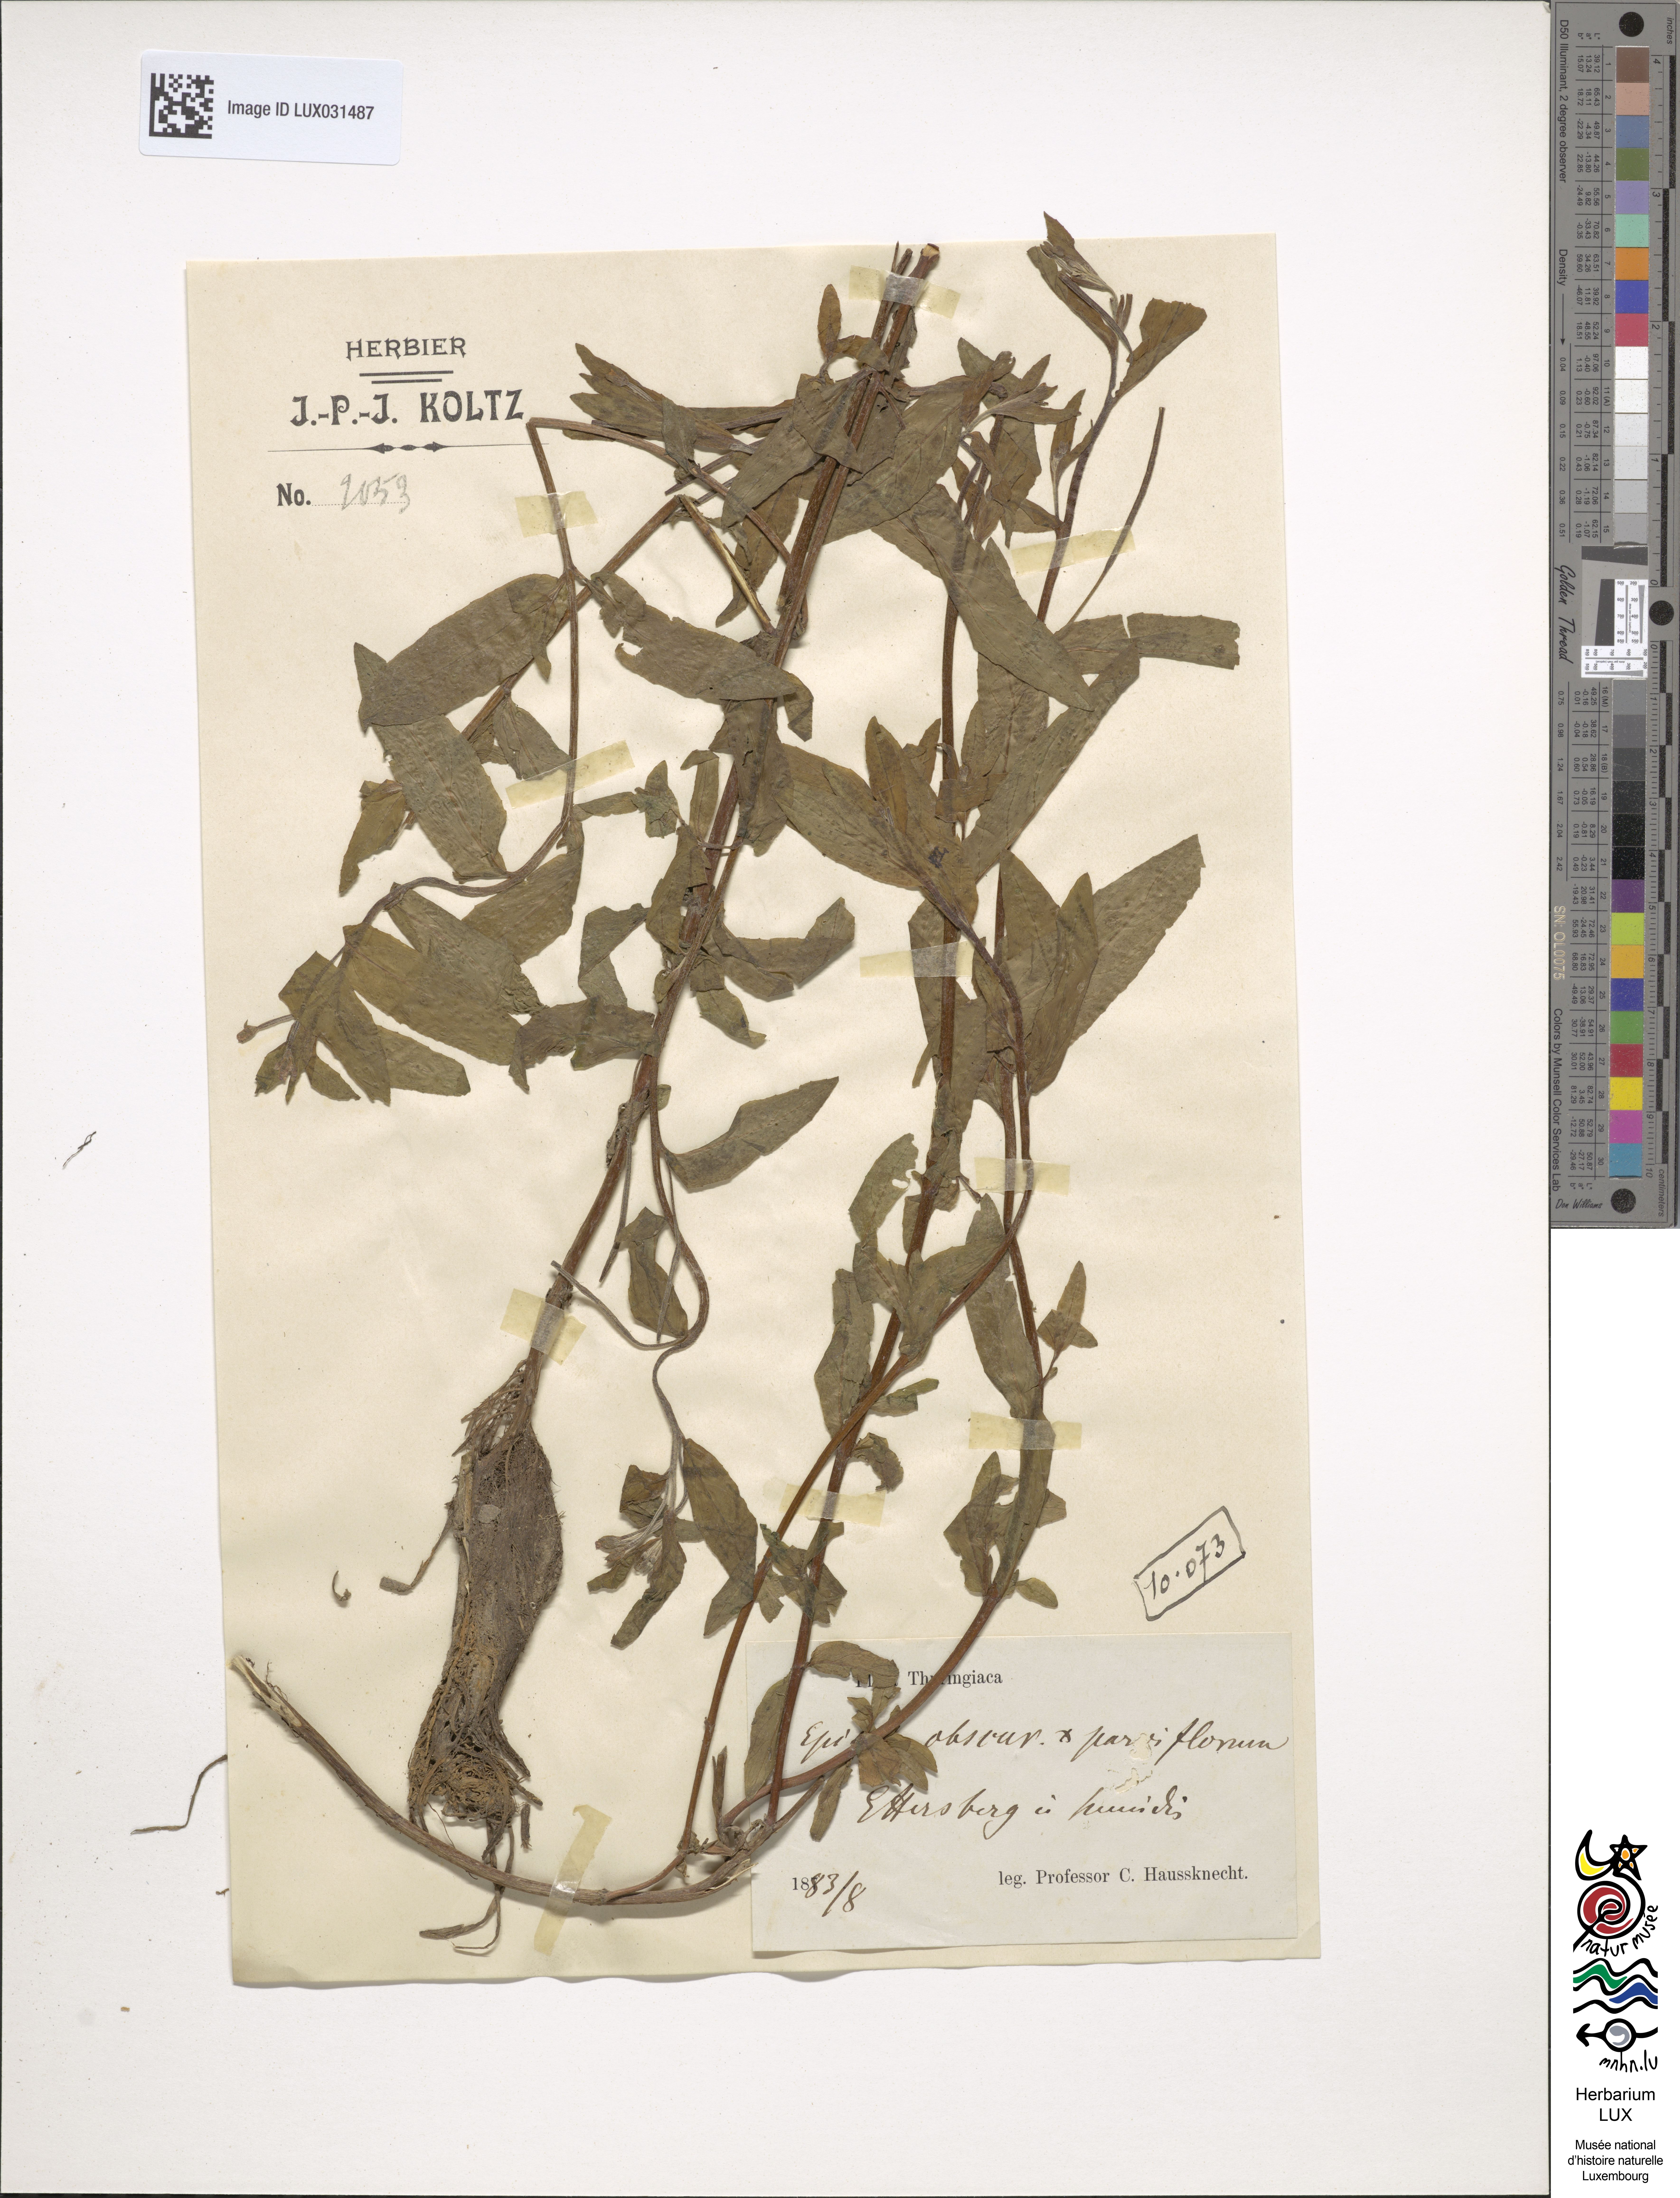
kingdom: Animalia
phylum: Arthropoda
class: Insecta
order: Hymenoptera
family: Megachilidae
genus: Epilobium
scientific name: Epilobium
